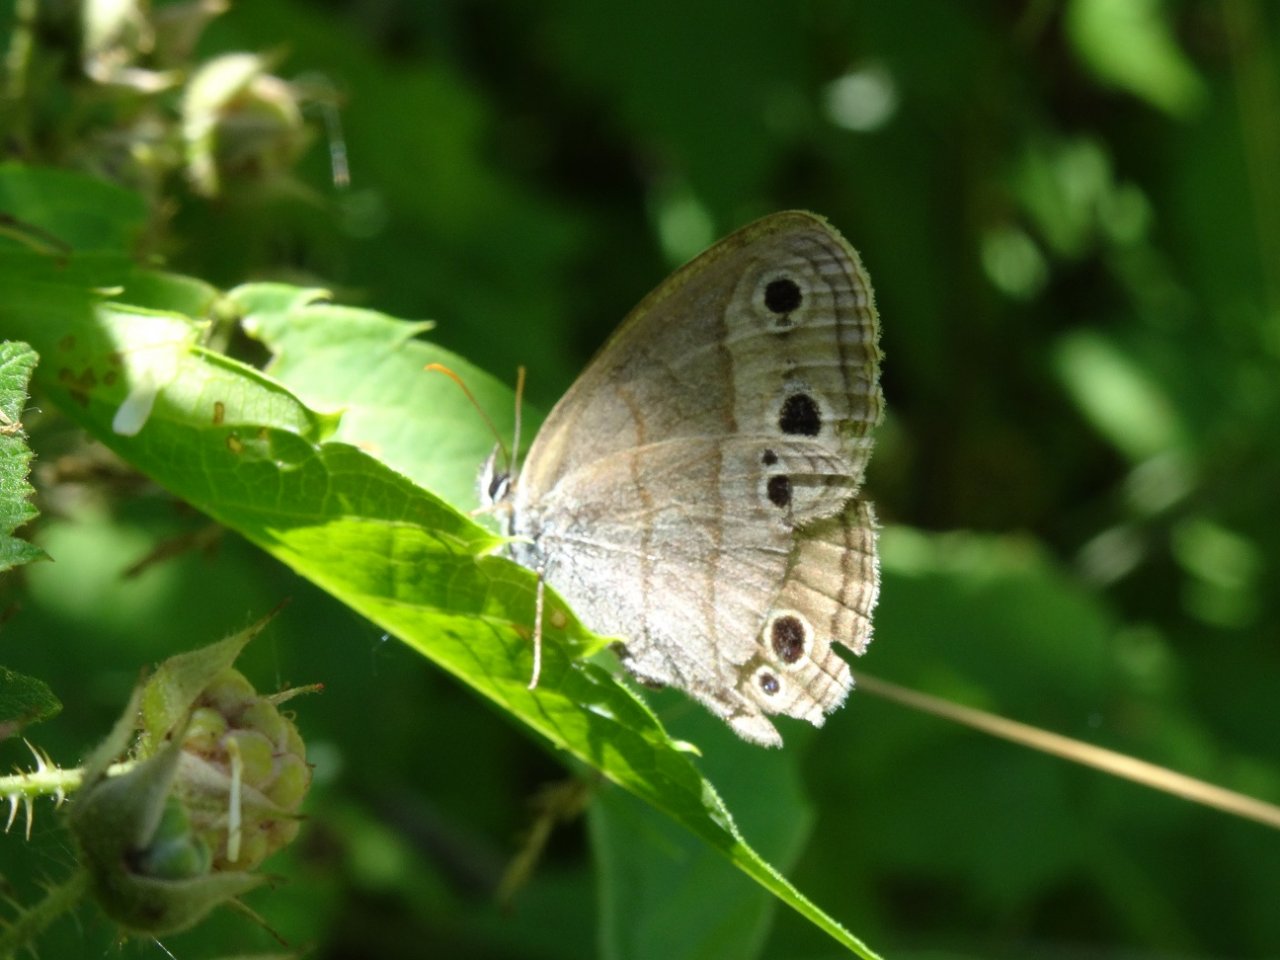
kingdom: Animalia
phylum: Arthropoda
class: Insecta
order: Lepidoptera
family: Nymphalidae
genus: Euptychia
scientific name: Euptychia cymela
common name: Little Wood Satyr
